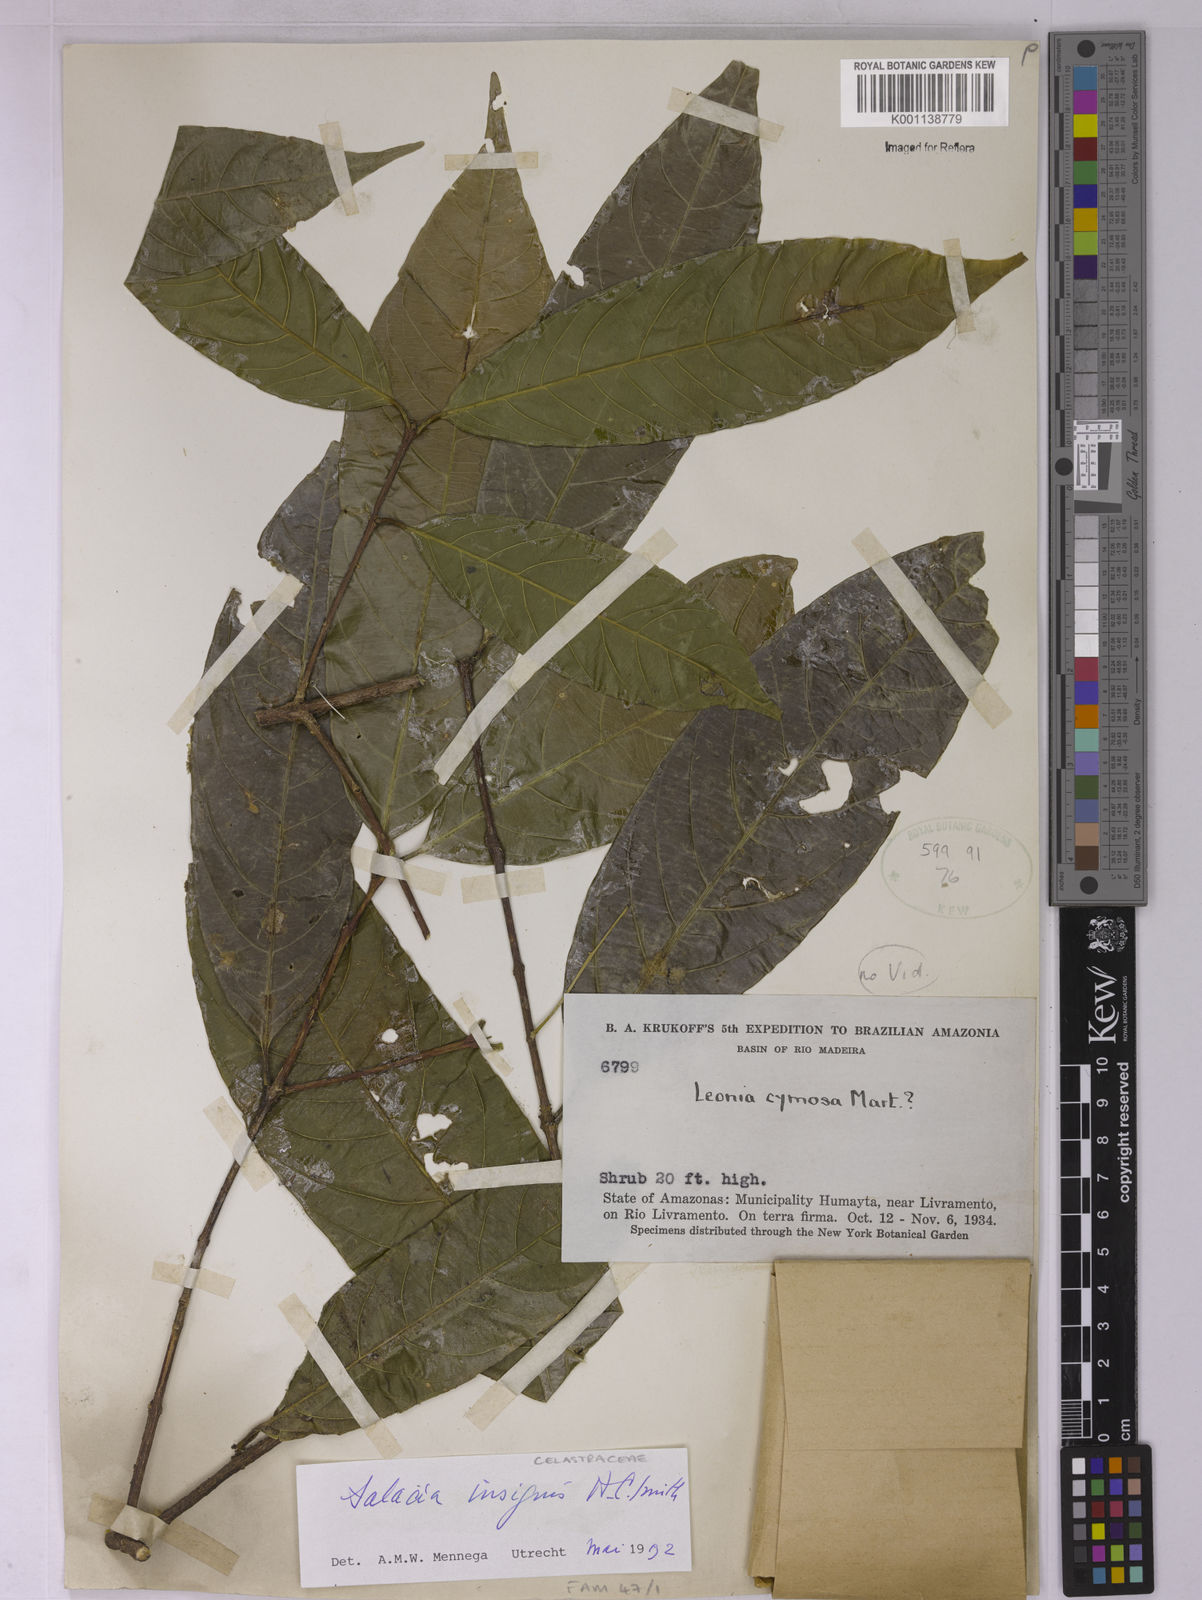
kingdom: Plantae
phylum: Tracheophyta
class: Magnoliopsida
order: Celastrales
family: Celastraceae
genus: Salacia
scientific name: Salacia insignis
